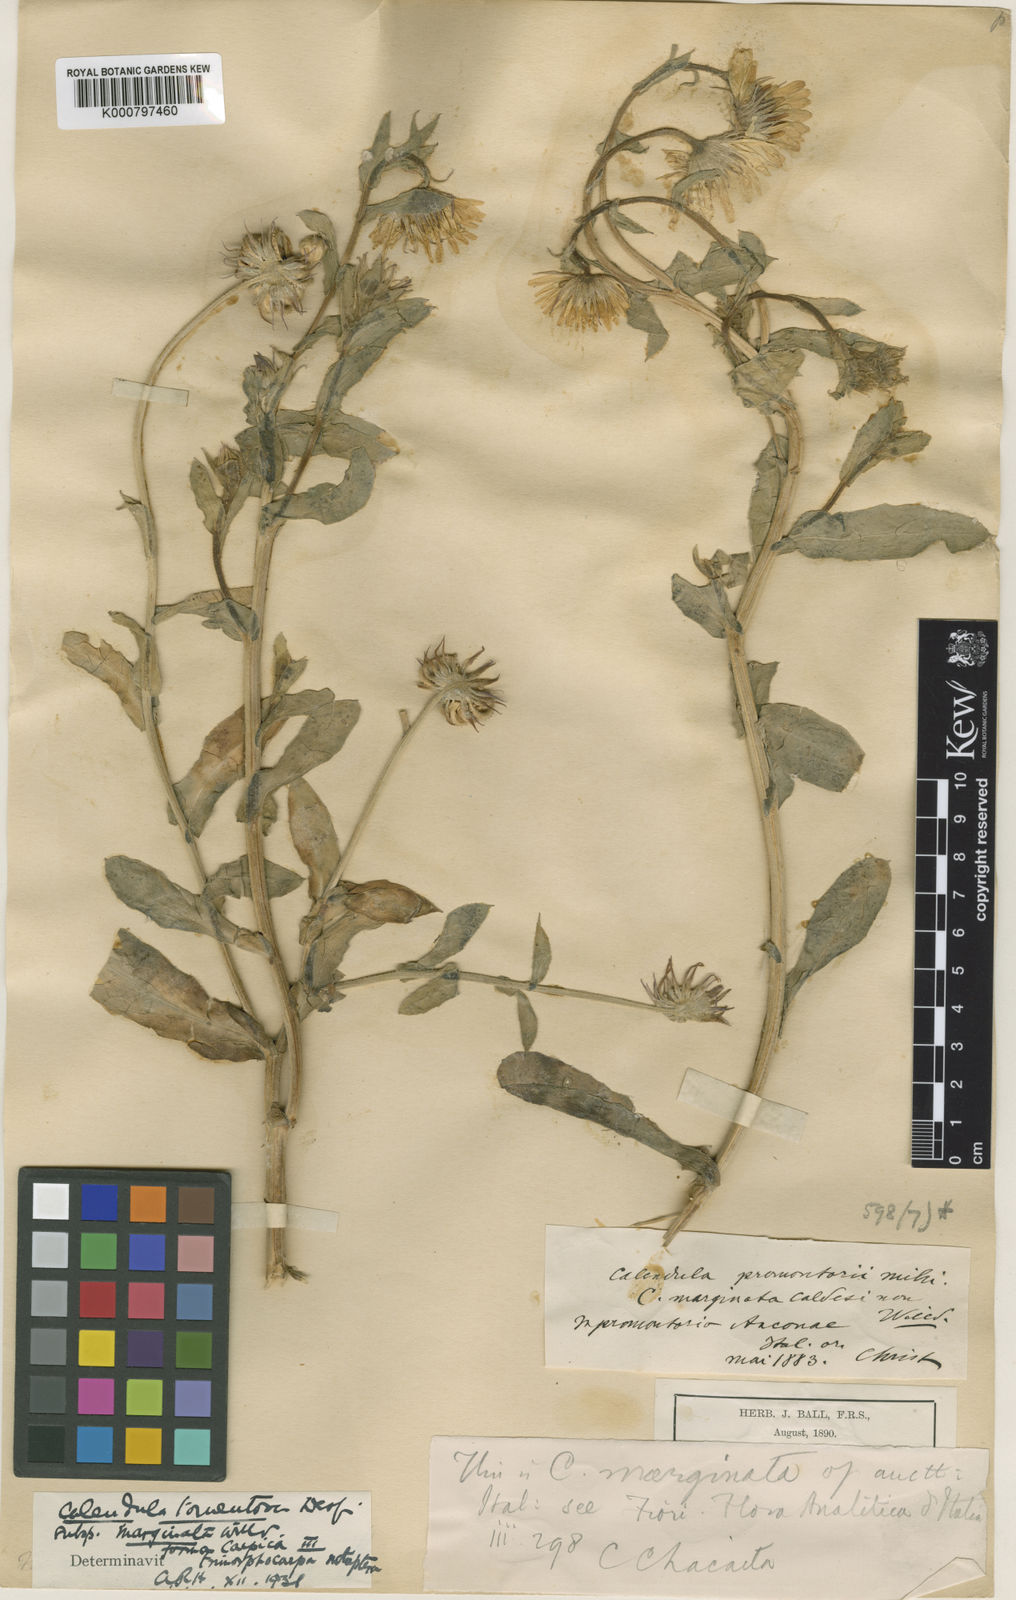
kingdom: Plantae
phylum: Tracheophyta
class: Magnoliopsida
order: Asterales
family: Asteraceae
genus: Calendula
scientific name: Calendula officinalis
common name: Pot marigold
